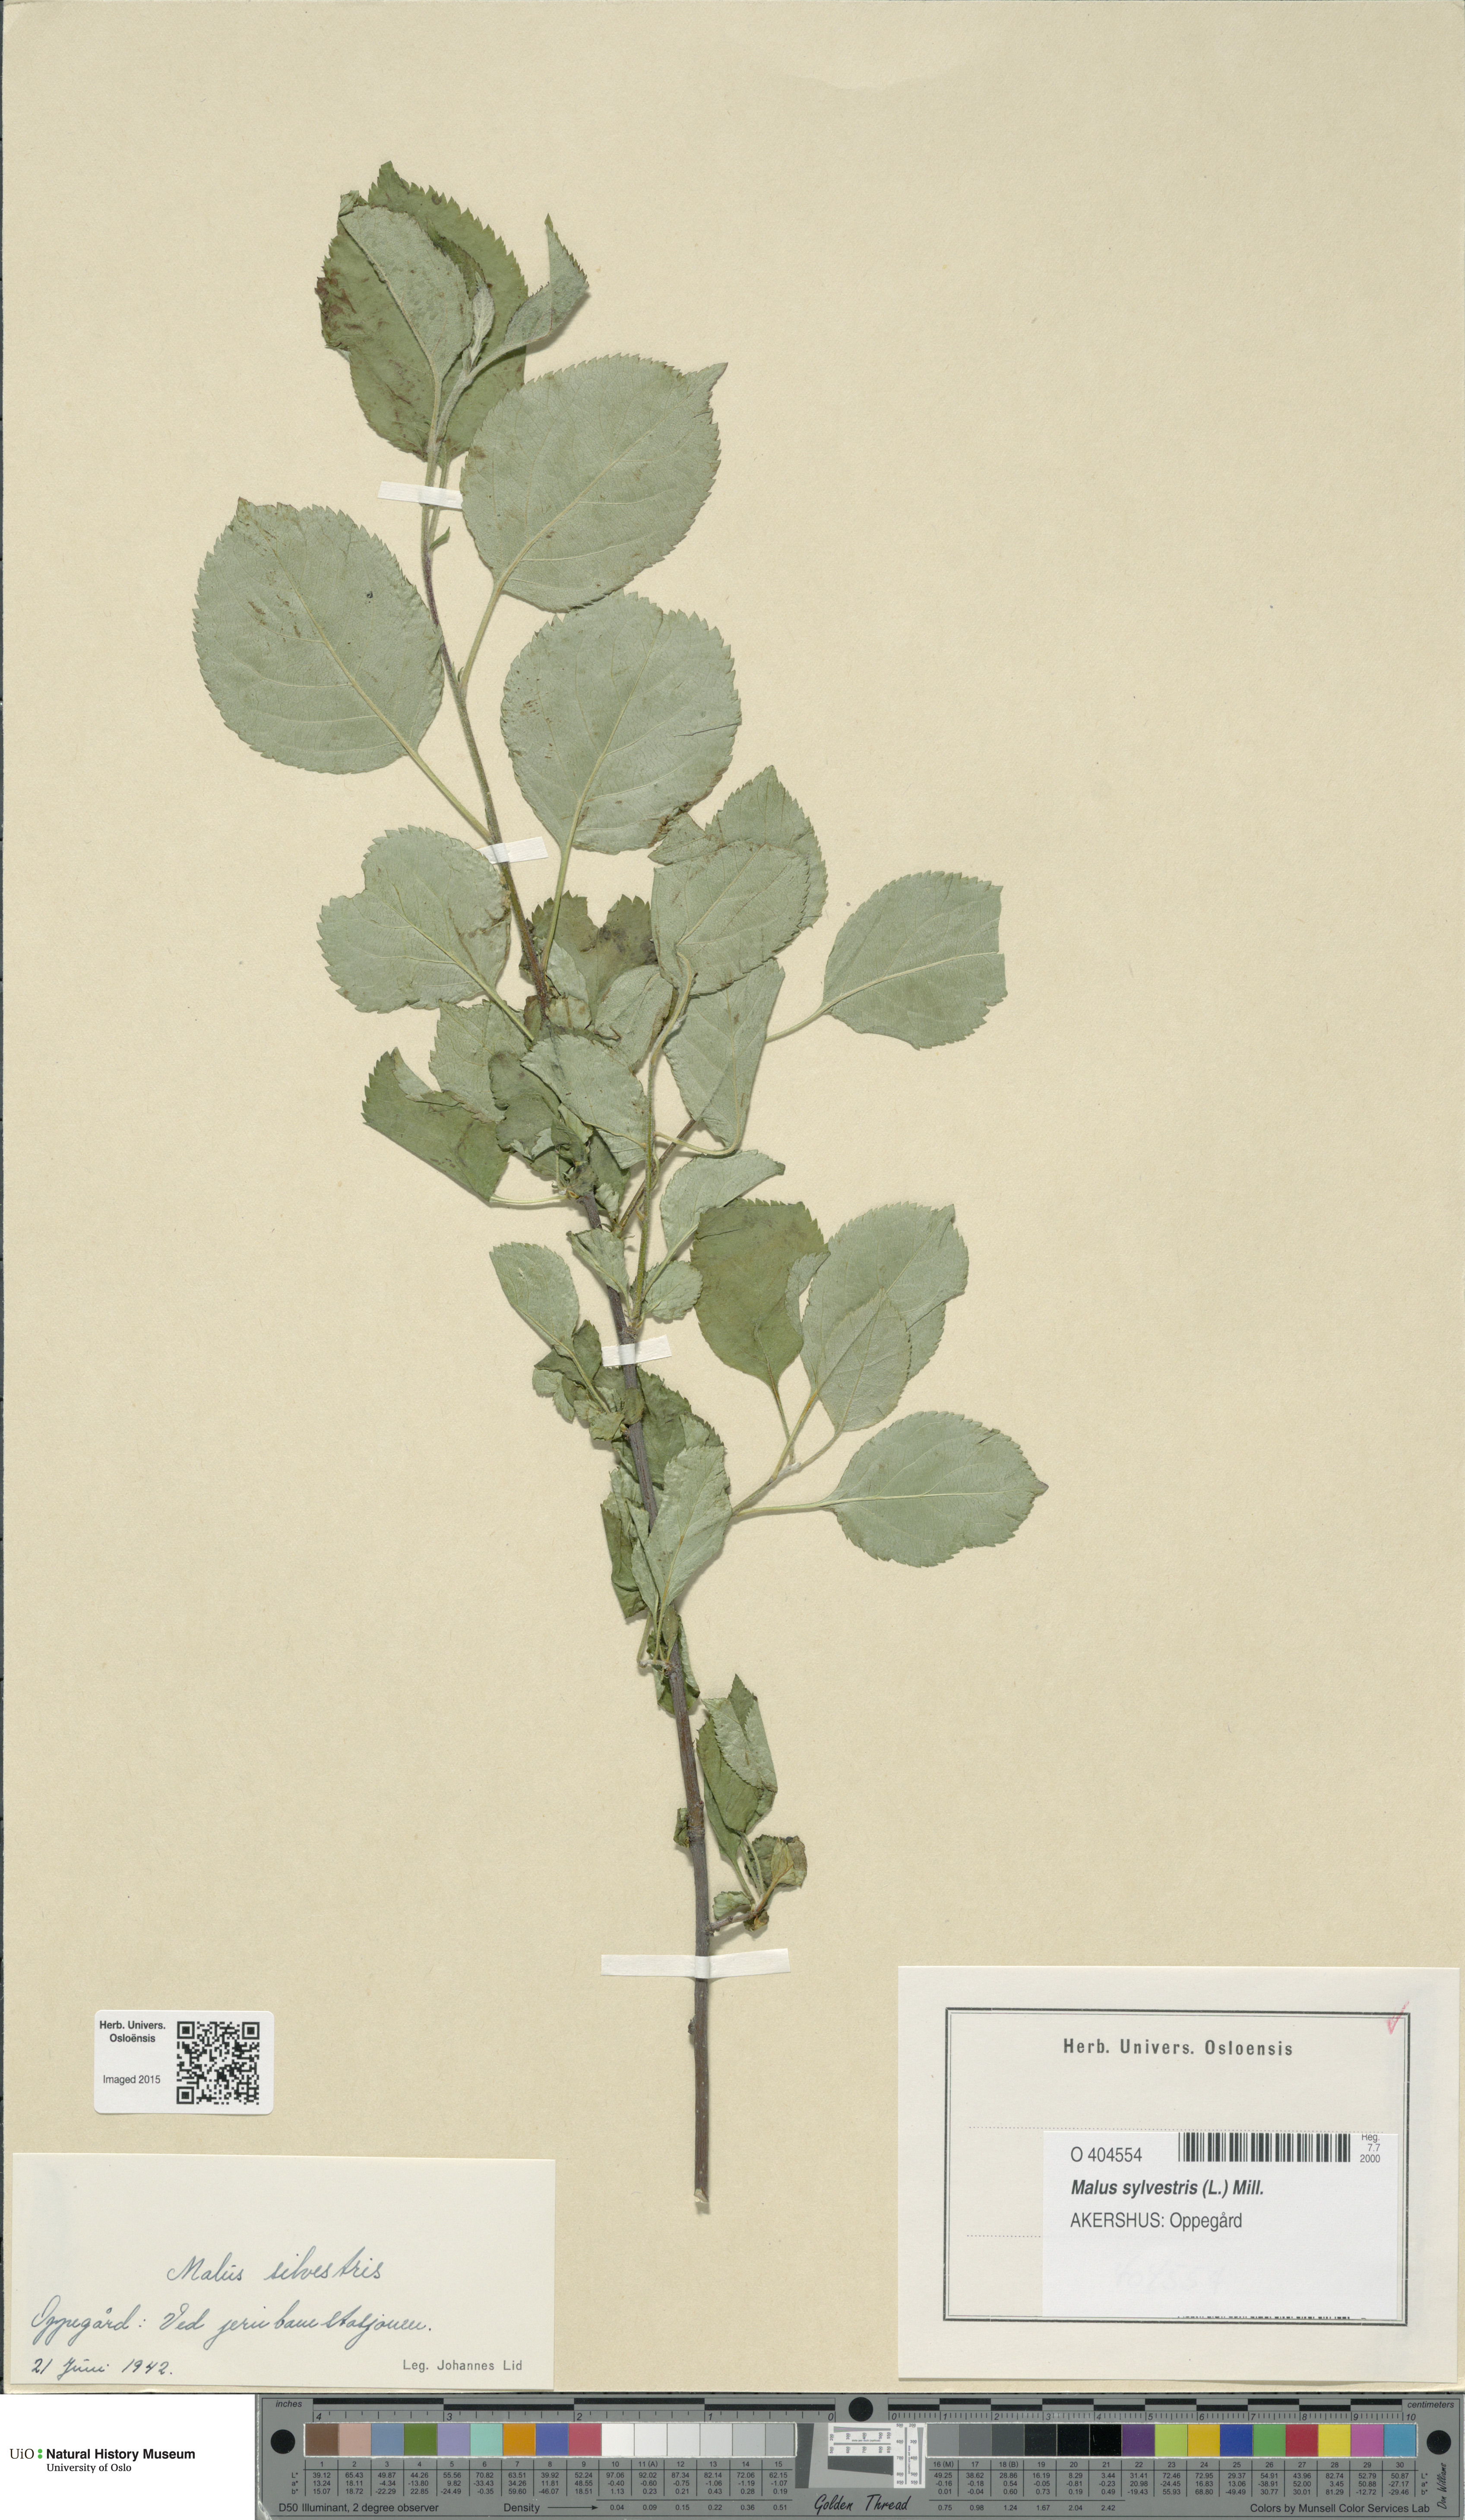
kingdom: Plantae
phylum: Tracheophyta
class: Magnoliopsida
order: Rosales
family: Rosaceae
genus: Malus
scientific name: Malus sylvestris
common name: Crab apple
